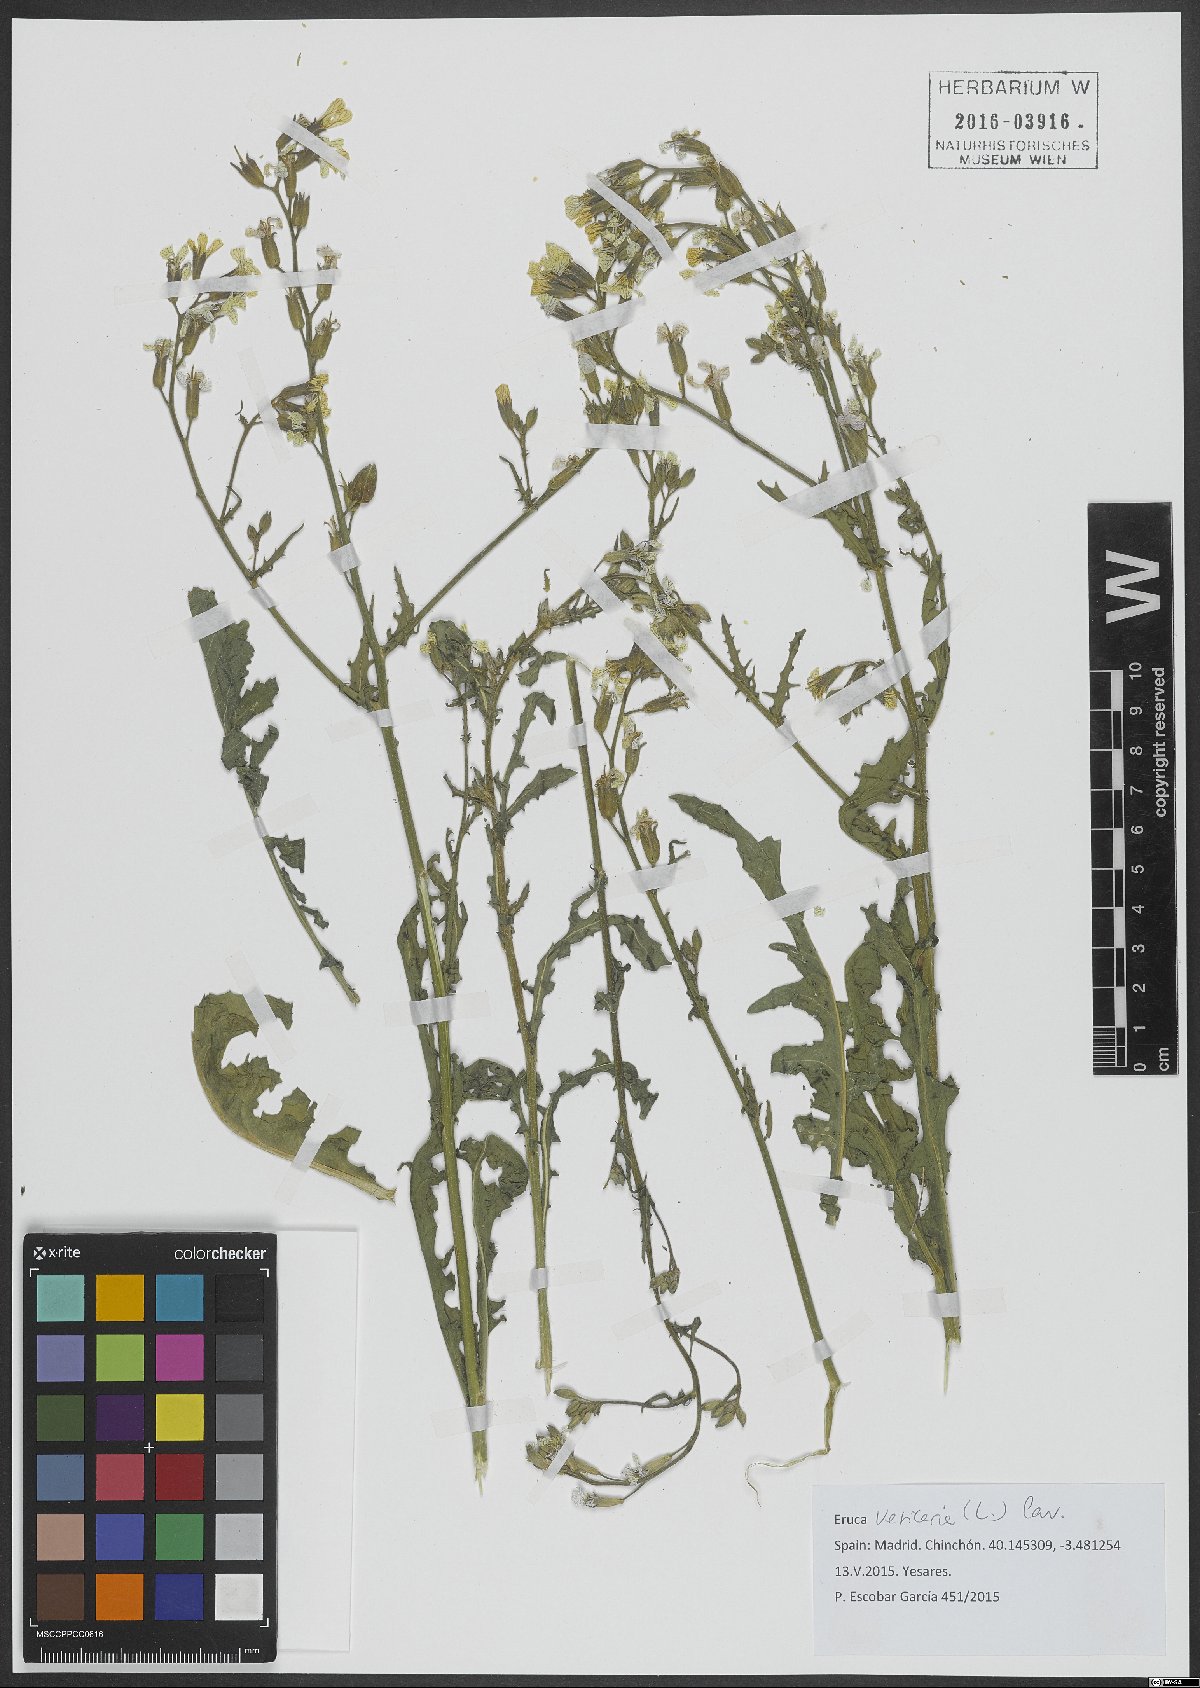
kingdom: Plantae
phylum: Tracheophyta
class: Magnoliopsida
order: Brassicales
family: Brassicaceae
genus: Eruca
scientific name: Eruca vesicaria
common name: Garden rocket
